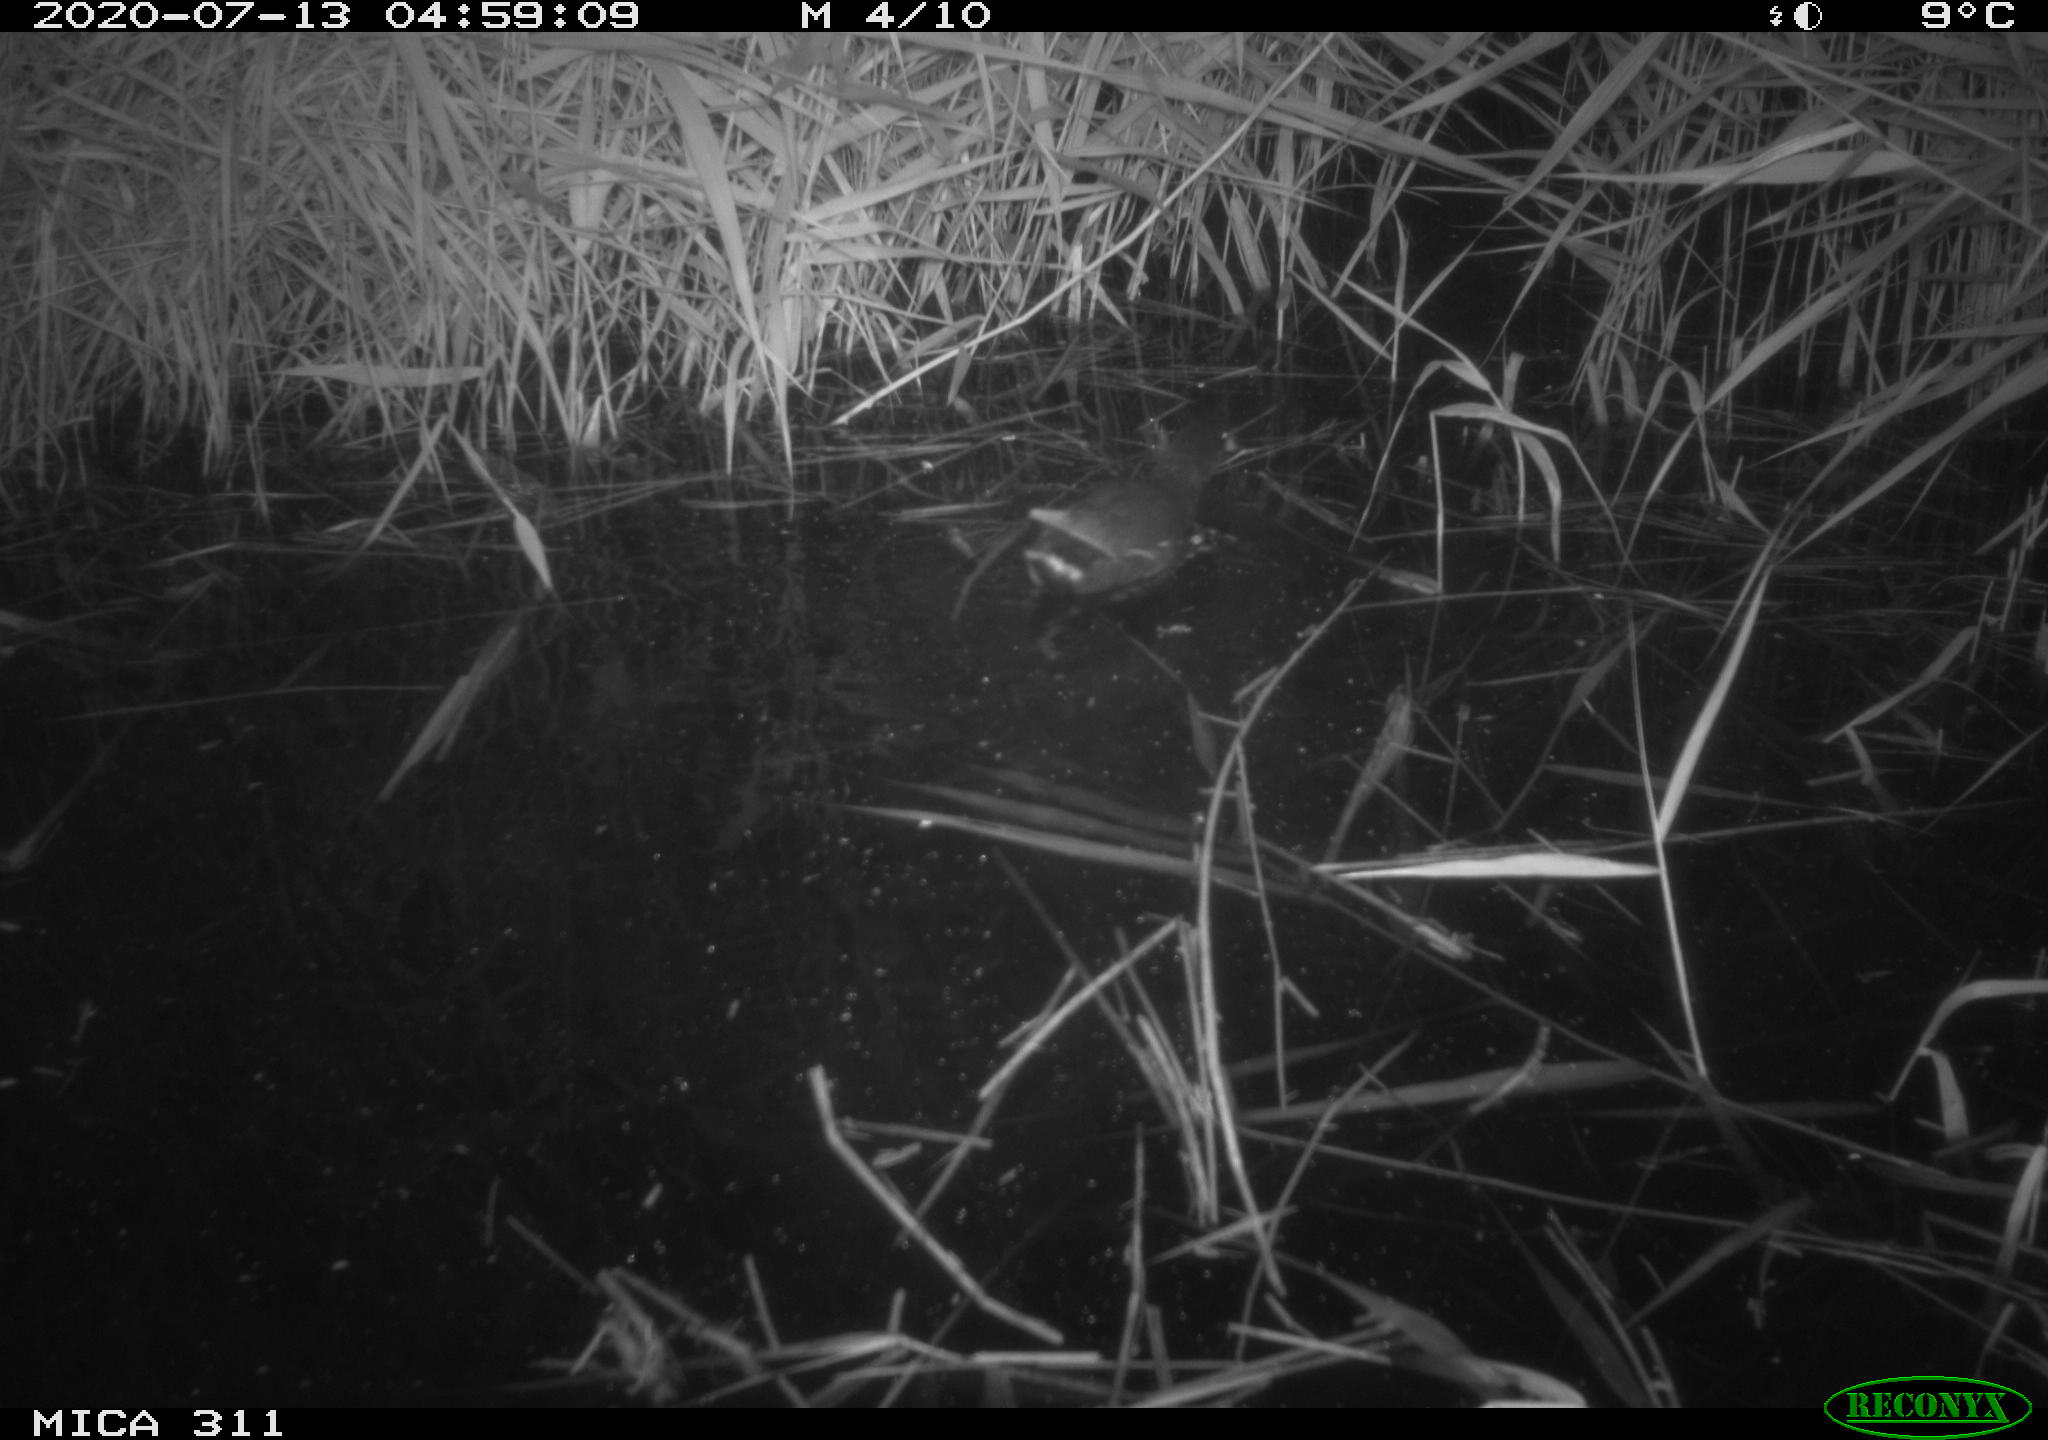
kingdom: Animalia
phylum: Chordata
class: Aves
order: Anseriformes
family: Anatidae
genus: Anas
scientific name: Anas platyrhynchos
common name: Mallard
